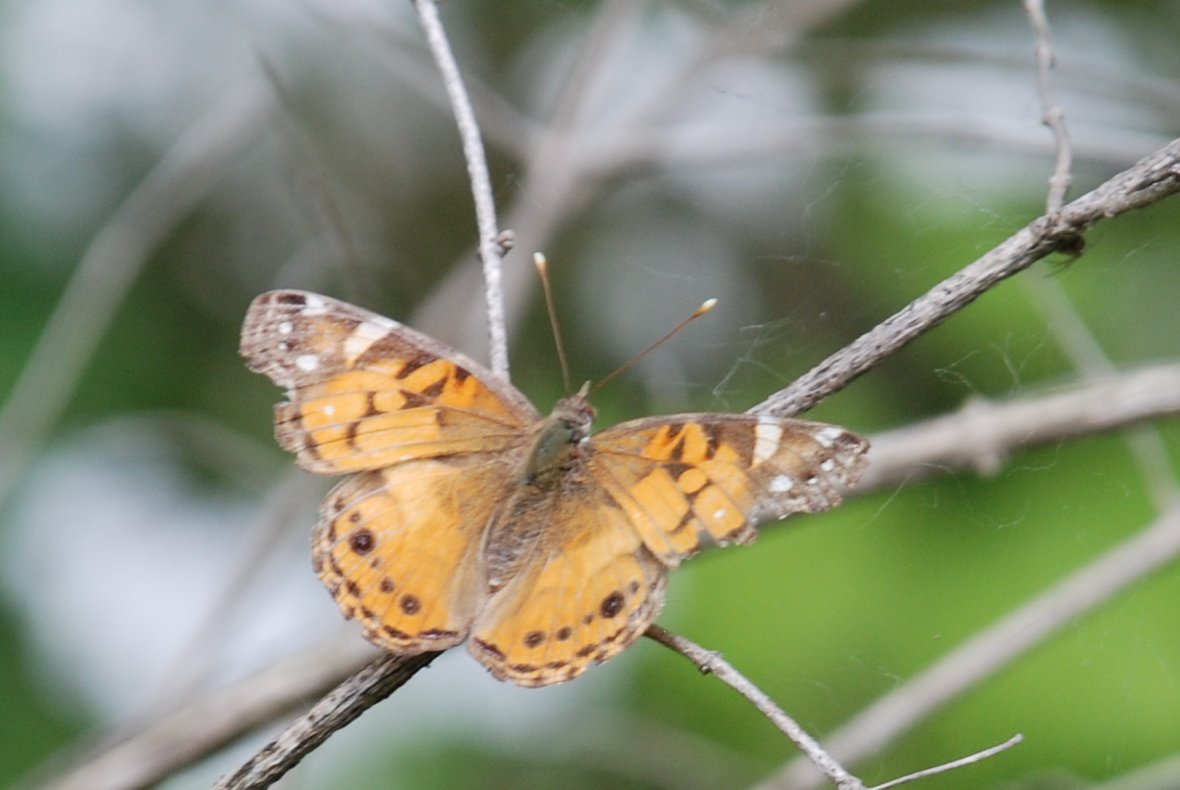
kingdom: Animalia
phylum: Arthropoda
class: Insecta
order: Lepidoptera
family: Nymphalidae
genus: Vanessa
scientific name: Vanessa virginiensis
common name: American Lady
